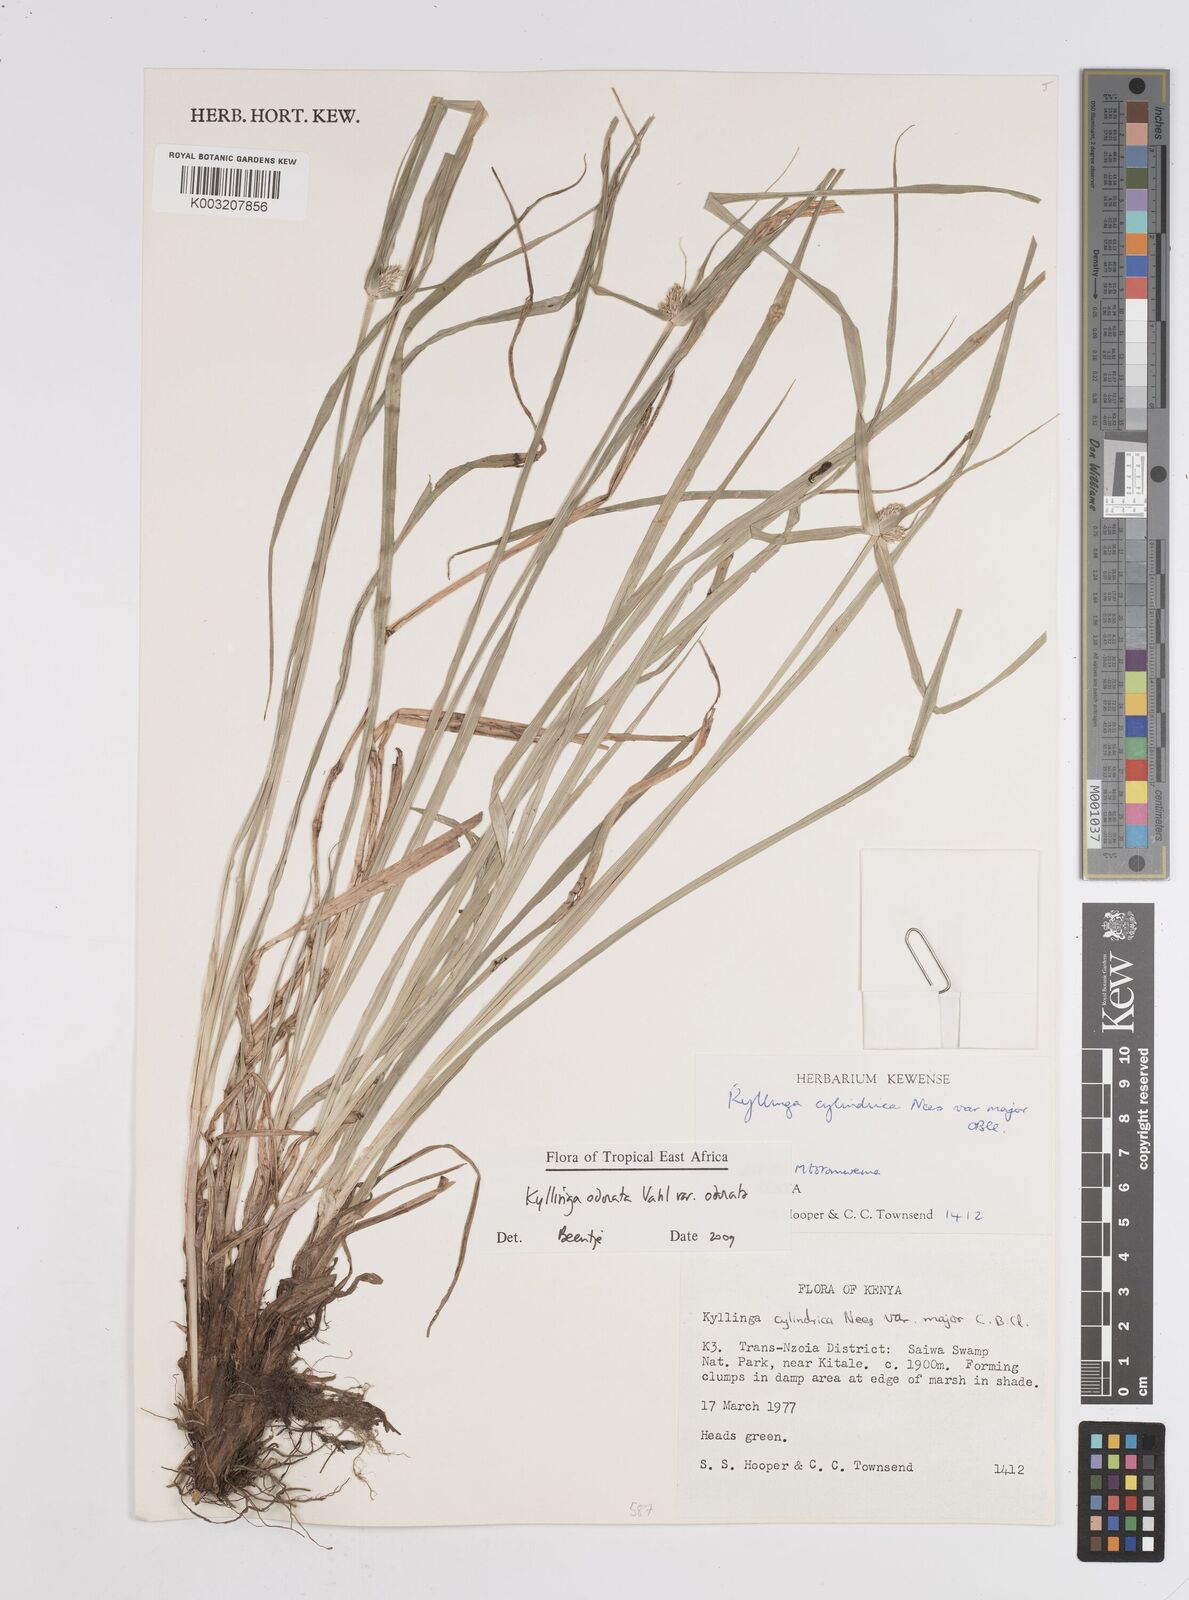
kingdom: Plantae
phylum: Tracheophyta
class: Liliopsida
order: Poales
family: Cyperaceae
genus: Cyperus
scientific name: Cyperus sesquiflorus
